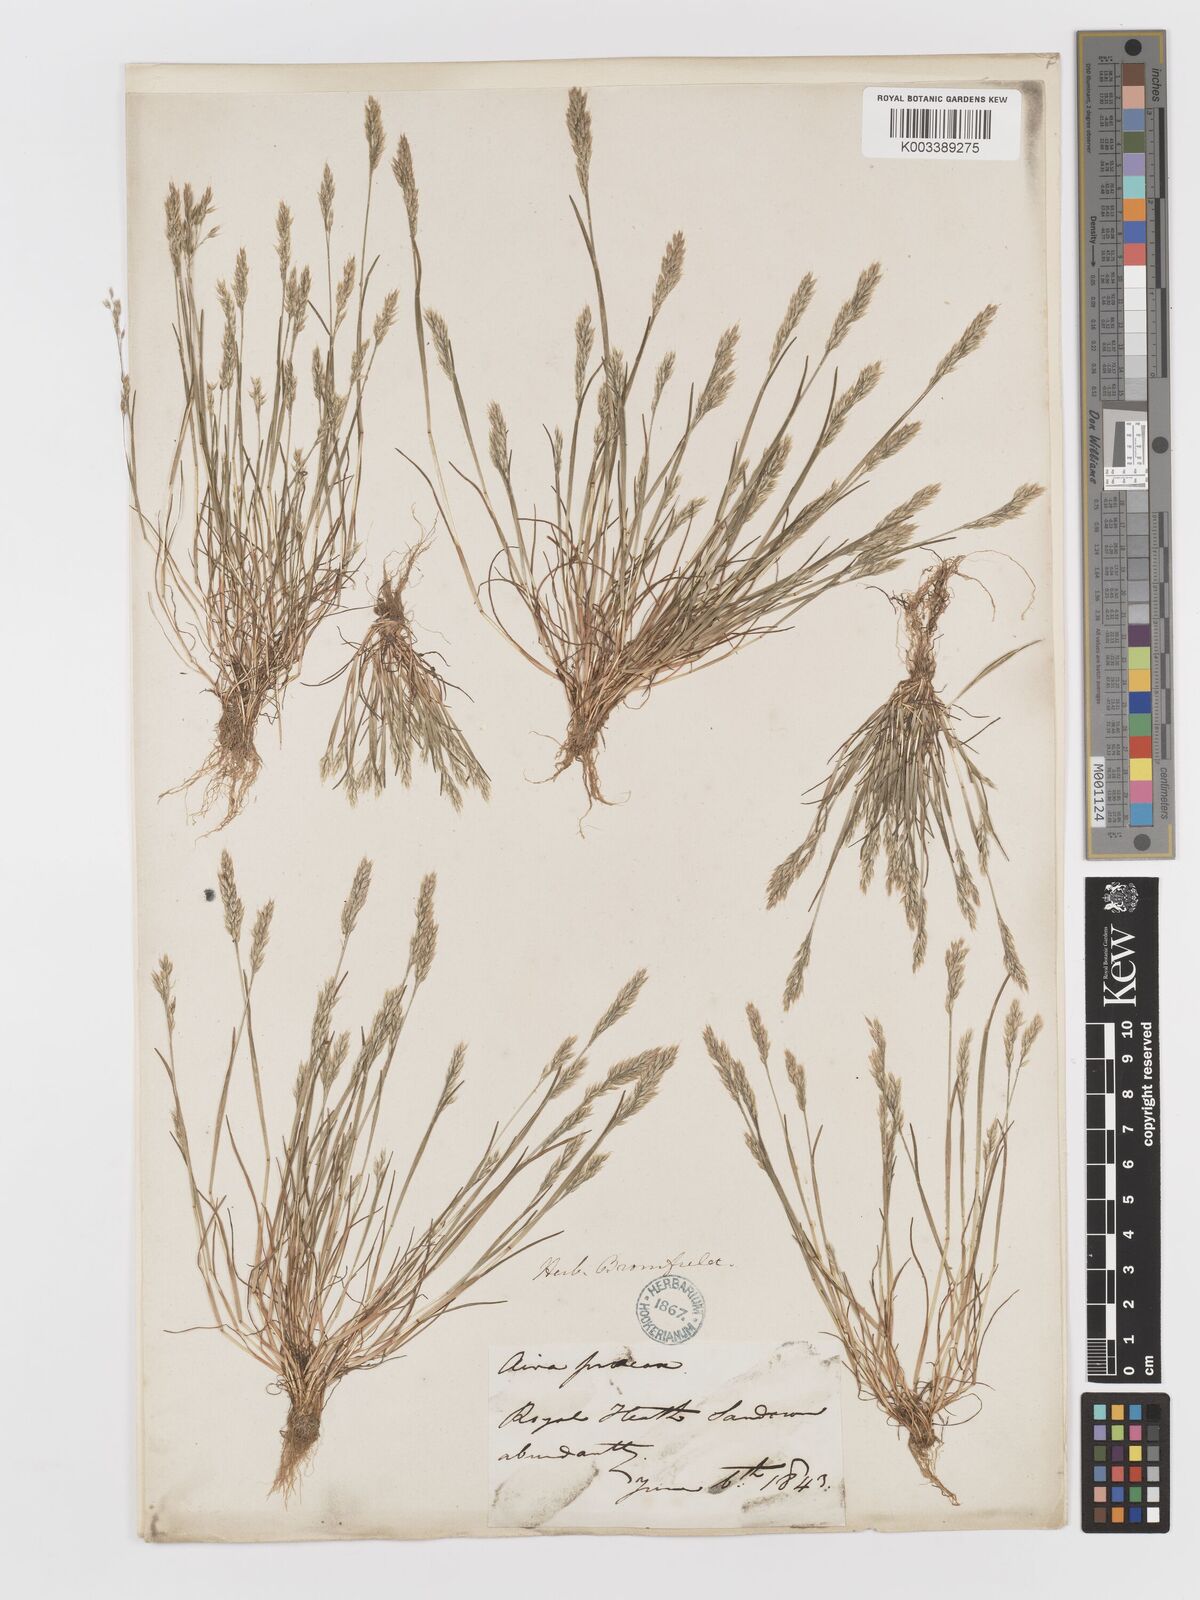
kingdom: Plantae
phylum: Tracheophyta
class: Liliopsida
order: Poales
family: Poaceae
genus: Aira
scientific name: Aira praecox
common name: Early hair-grass
